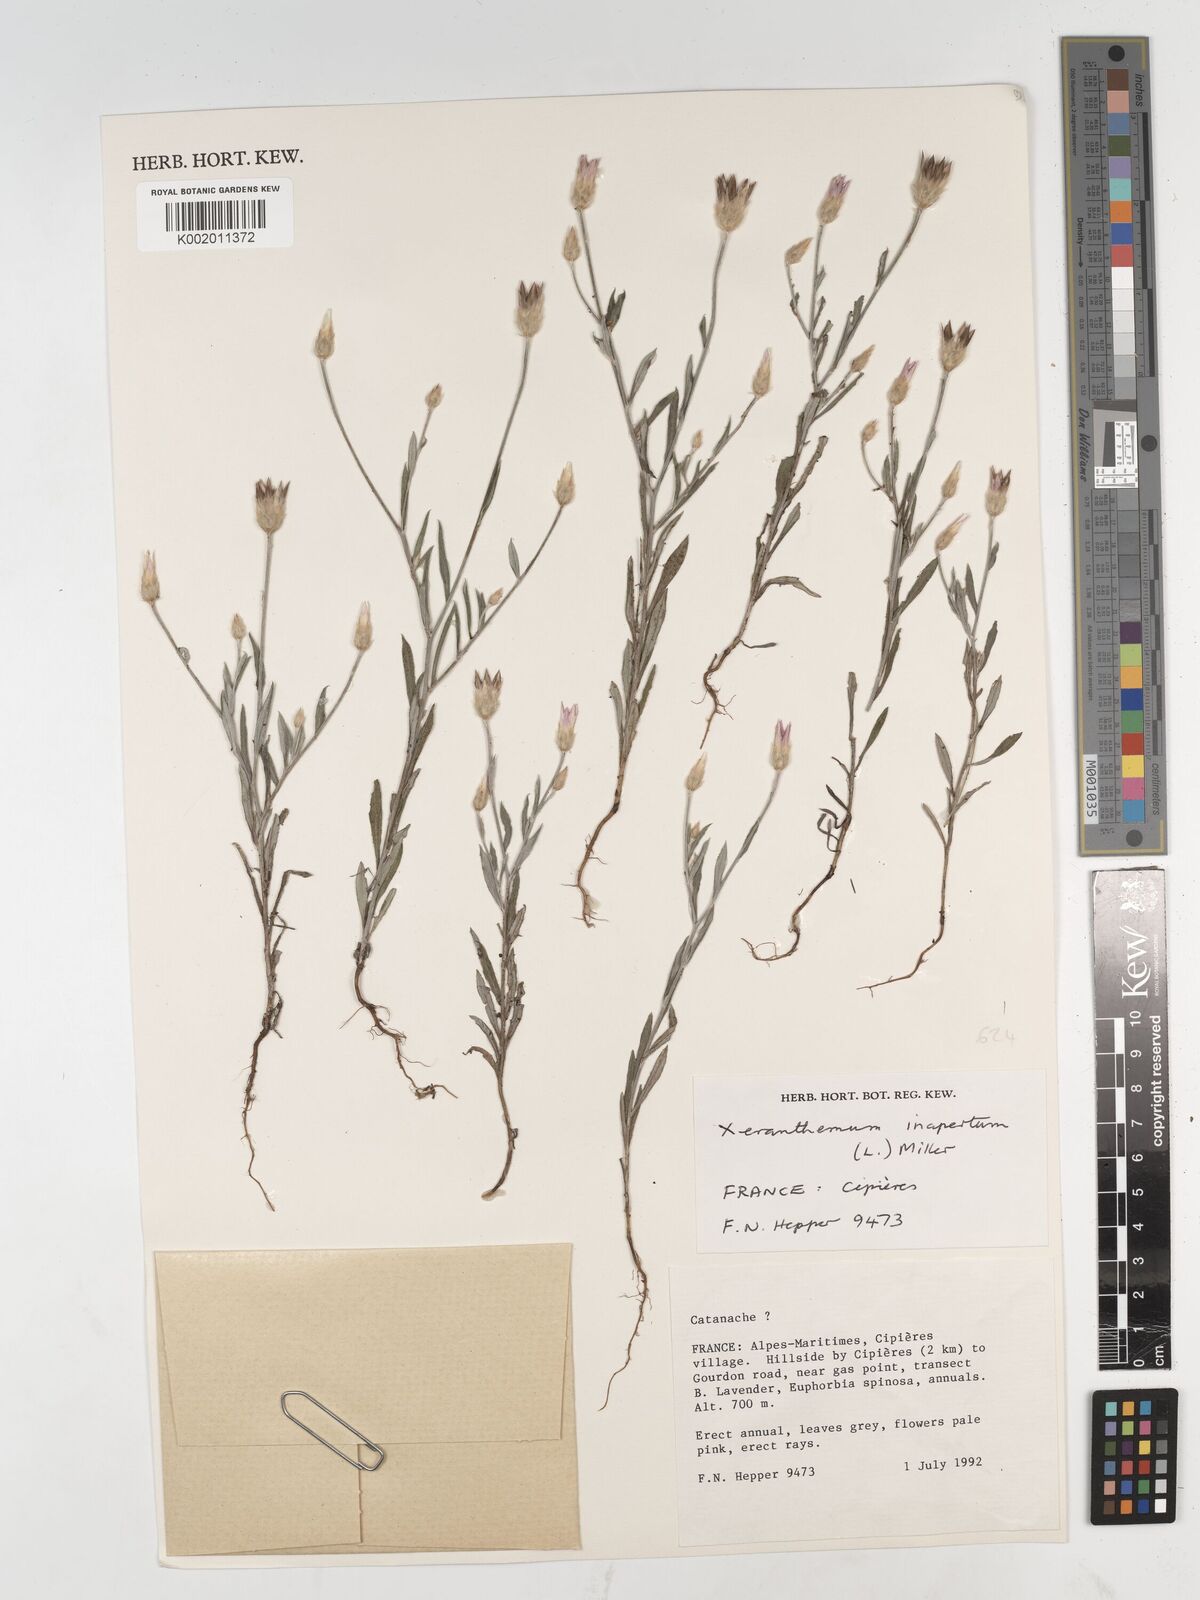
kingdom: Plantae
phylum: Tracheophyta
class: Magnoliopsida
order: Asterales
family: Asteraceae
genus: Xeranthemum
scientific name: Xeranthemum inapertum
